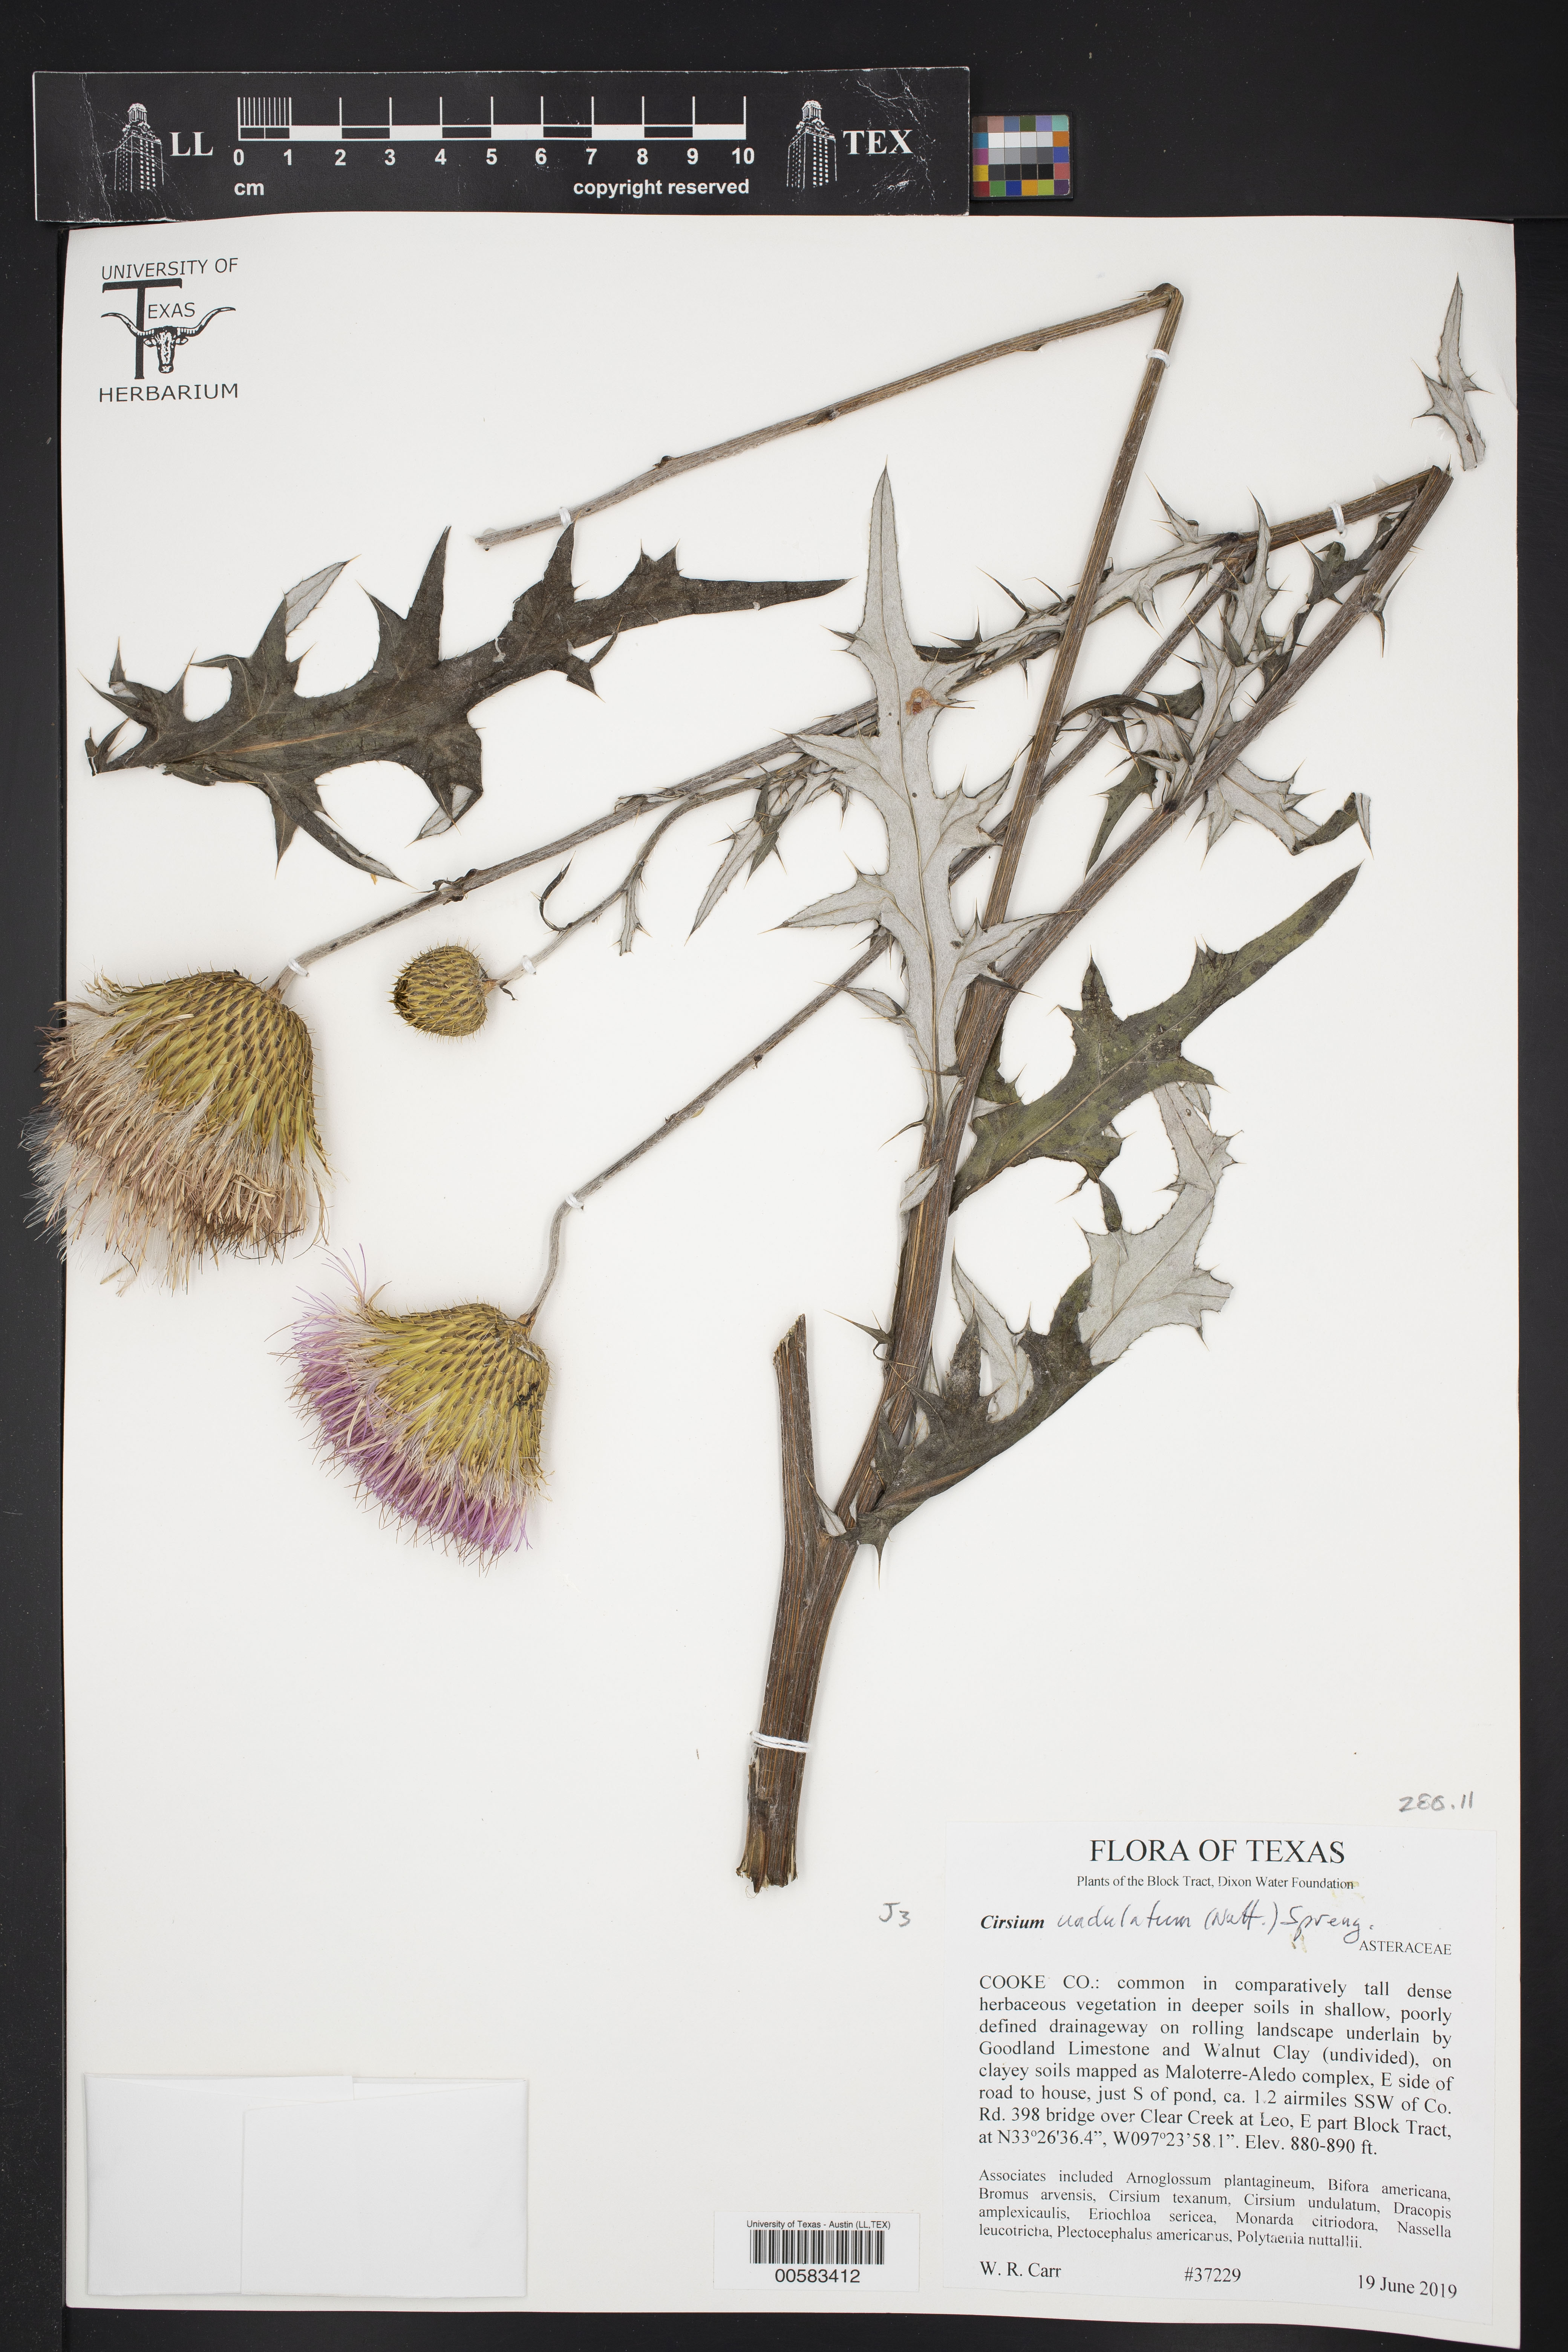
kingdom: Plantae
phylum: Tracheophyta
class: Magnoliopsida
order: Asterales
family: Asteraceae
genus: Cirsium
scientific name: Cirsium undulatum
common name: Pasture thistle
